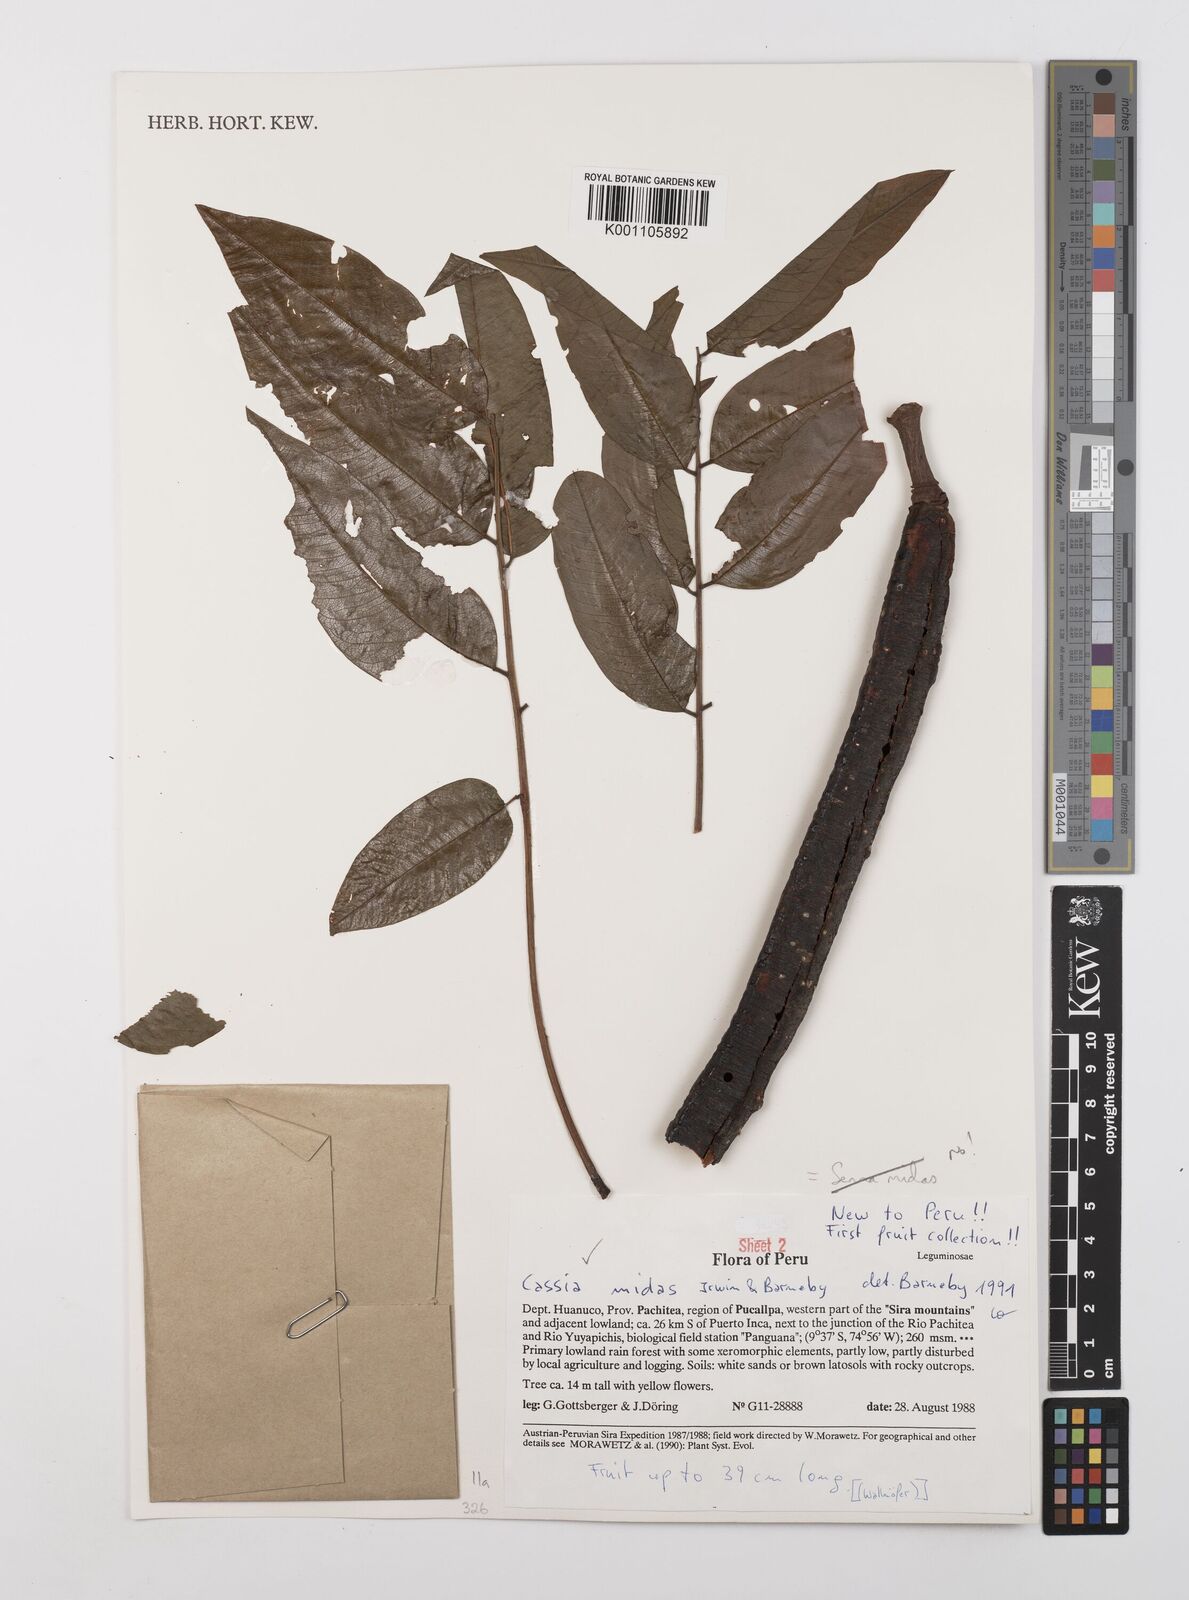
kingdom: Plantae
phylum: Tracheophyta
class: Magnoliopsida
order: Fabales
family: Fabaceae
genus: Cassia
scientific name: Cassia midas
